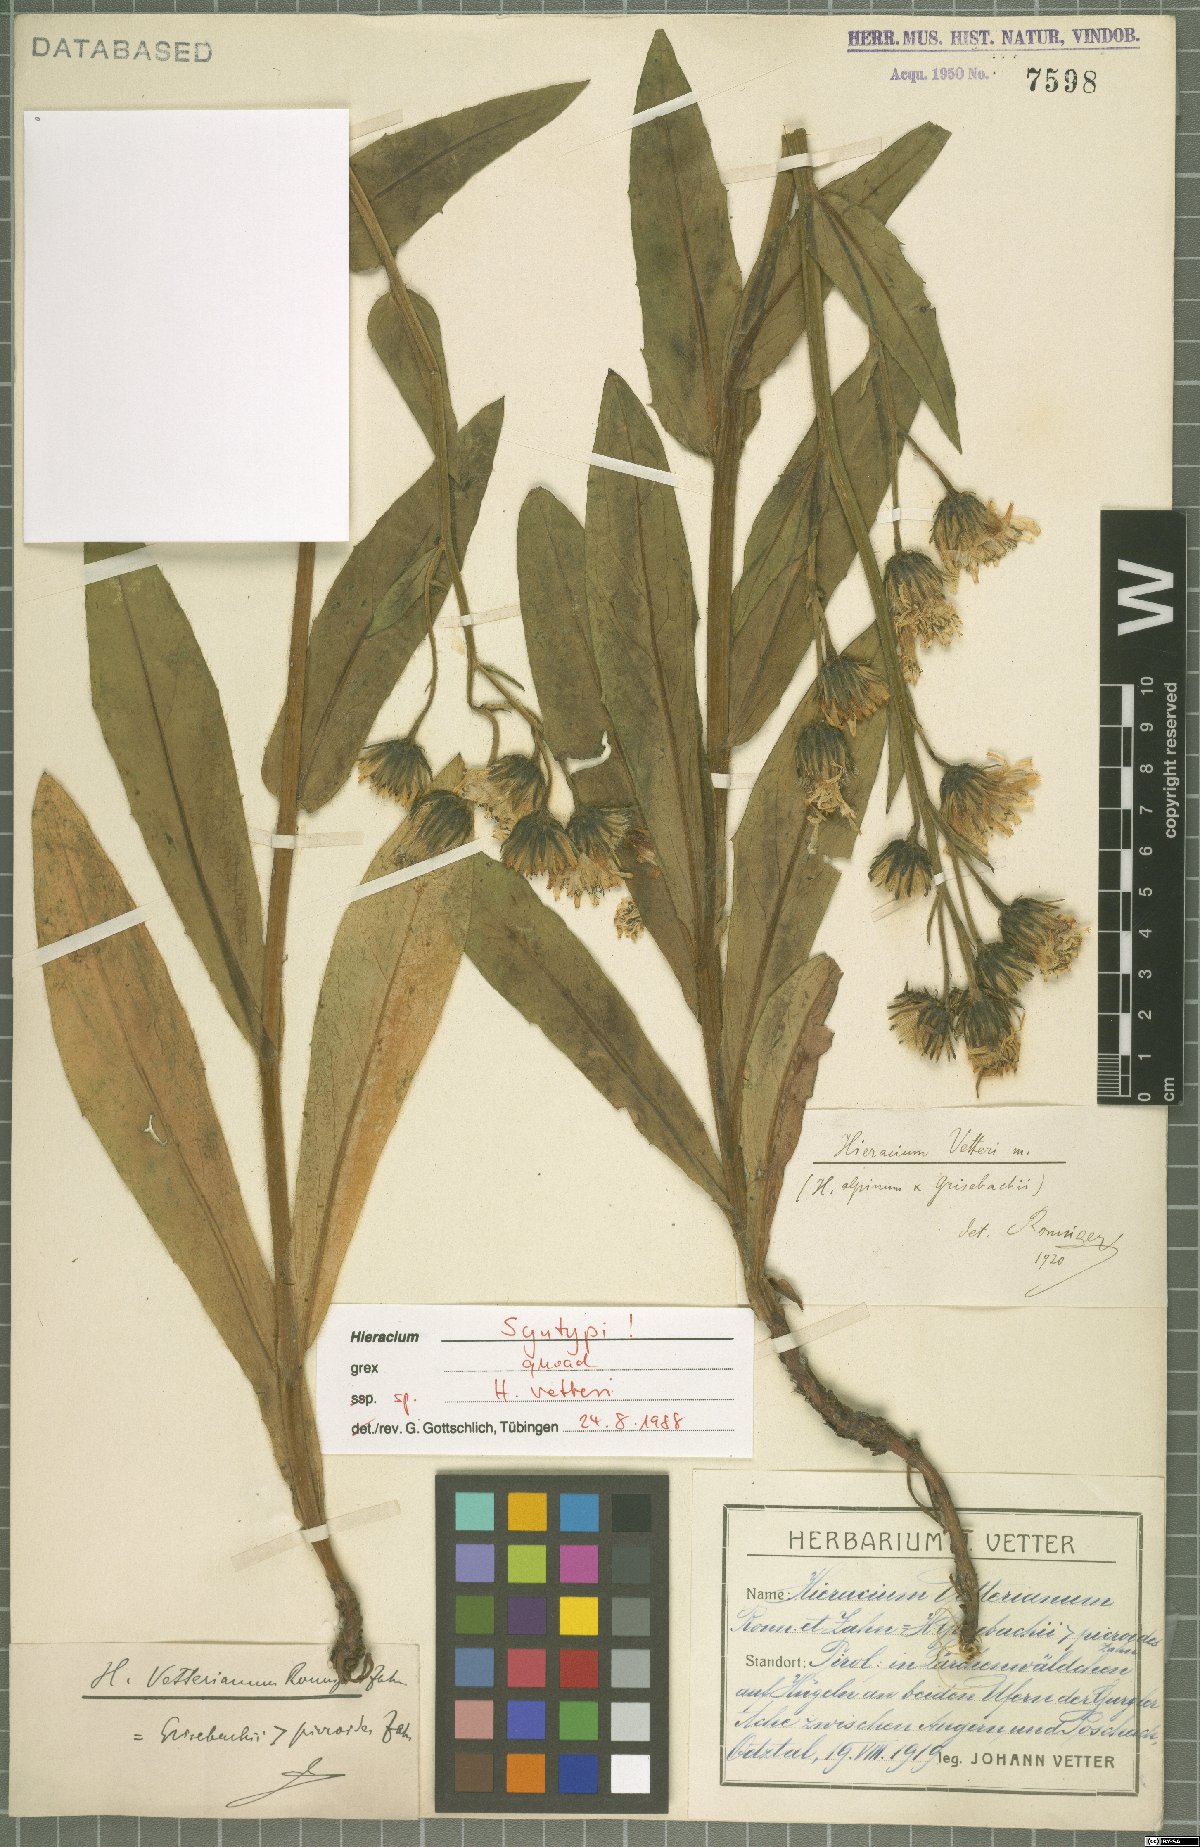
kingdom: Plantae
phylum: Tracheophyta
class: Magnoliopsida
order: Asterales
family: Asteraceae
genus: Hieracium
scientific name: Hieracium vetteri
